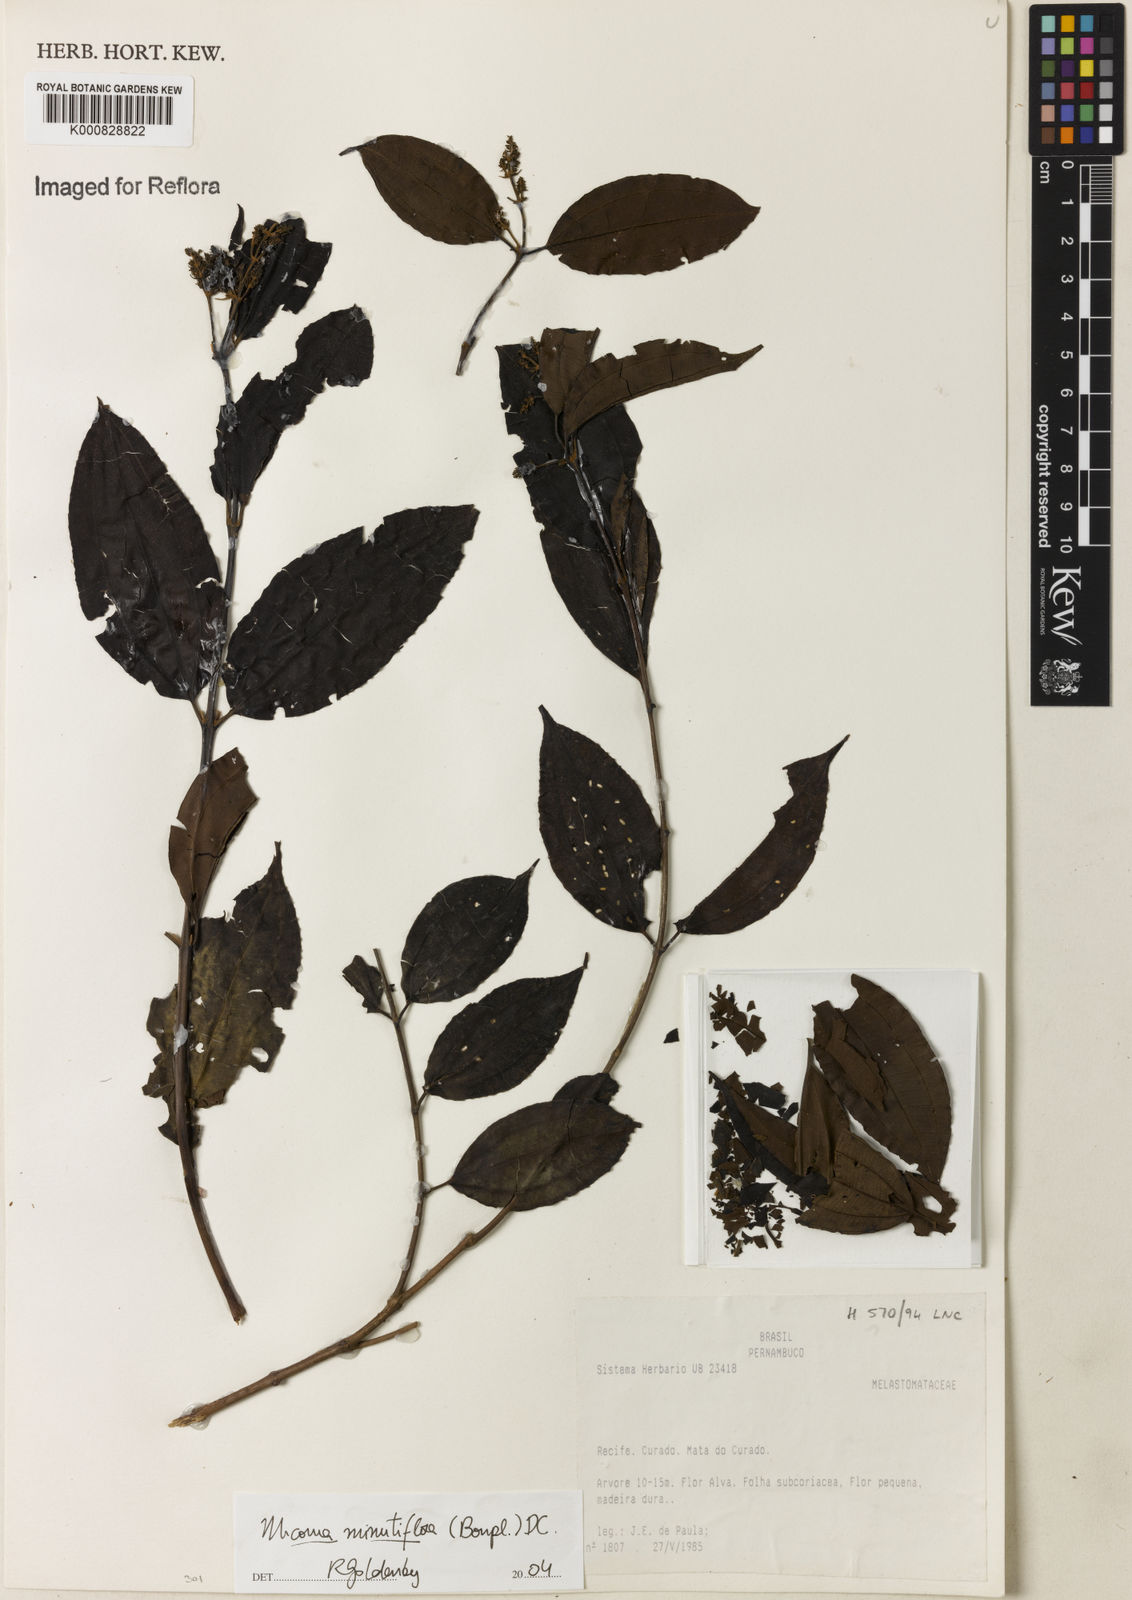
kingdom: Plantae
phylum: Tracheophyta
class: Magnoliopsida
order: Myrtales
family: Melastomataceae
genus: Miconia
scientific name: Miconia minutiflora
